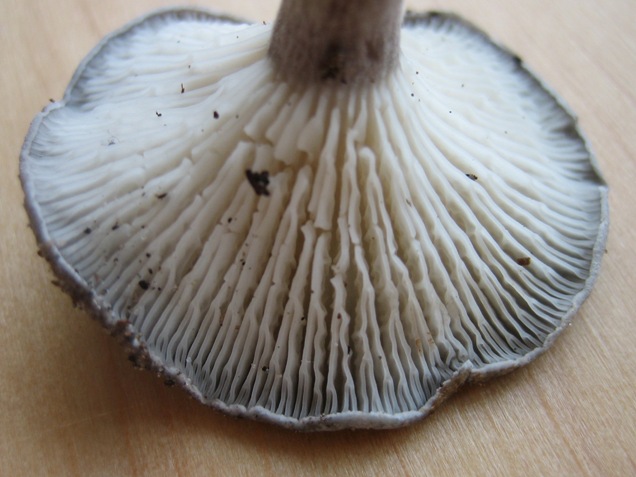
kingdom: Fungi
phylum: Basidiomycota
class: Agaricomycetes
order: Agaricales
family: Hygrophoraceae
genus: Cantharellula
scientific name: Cantharellula umbonata
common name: rødmende gaffelblad
